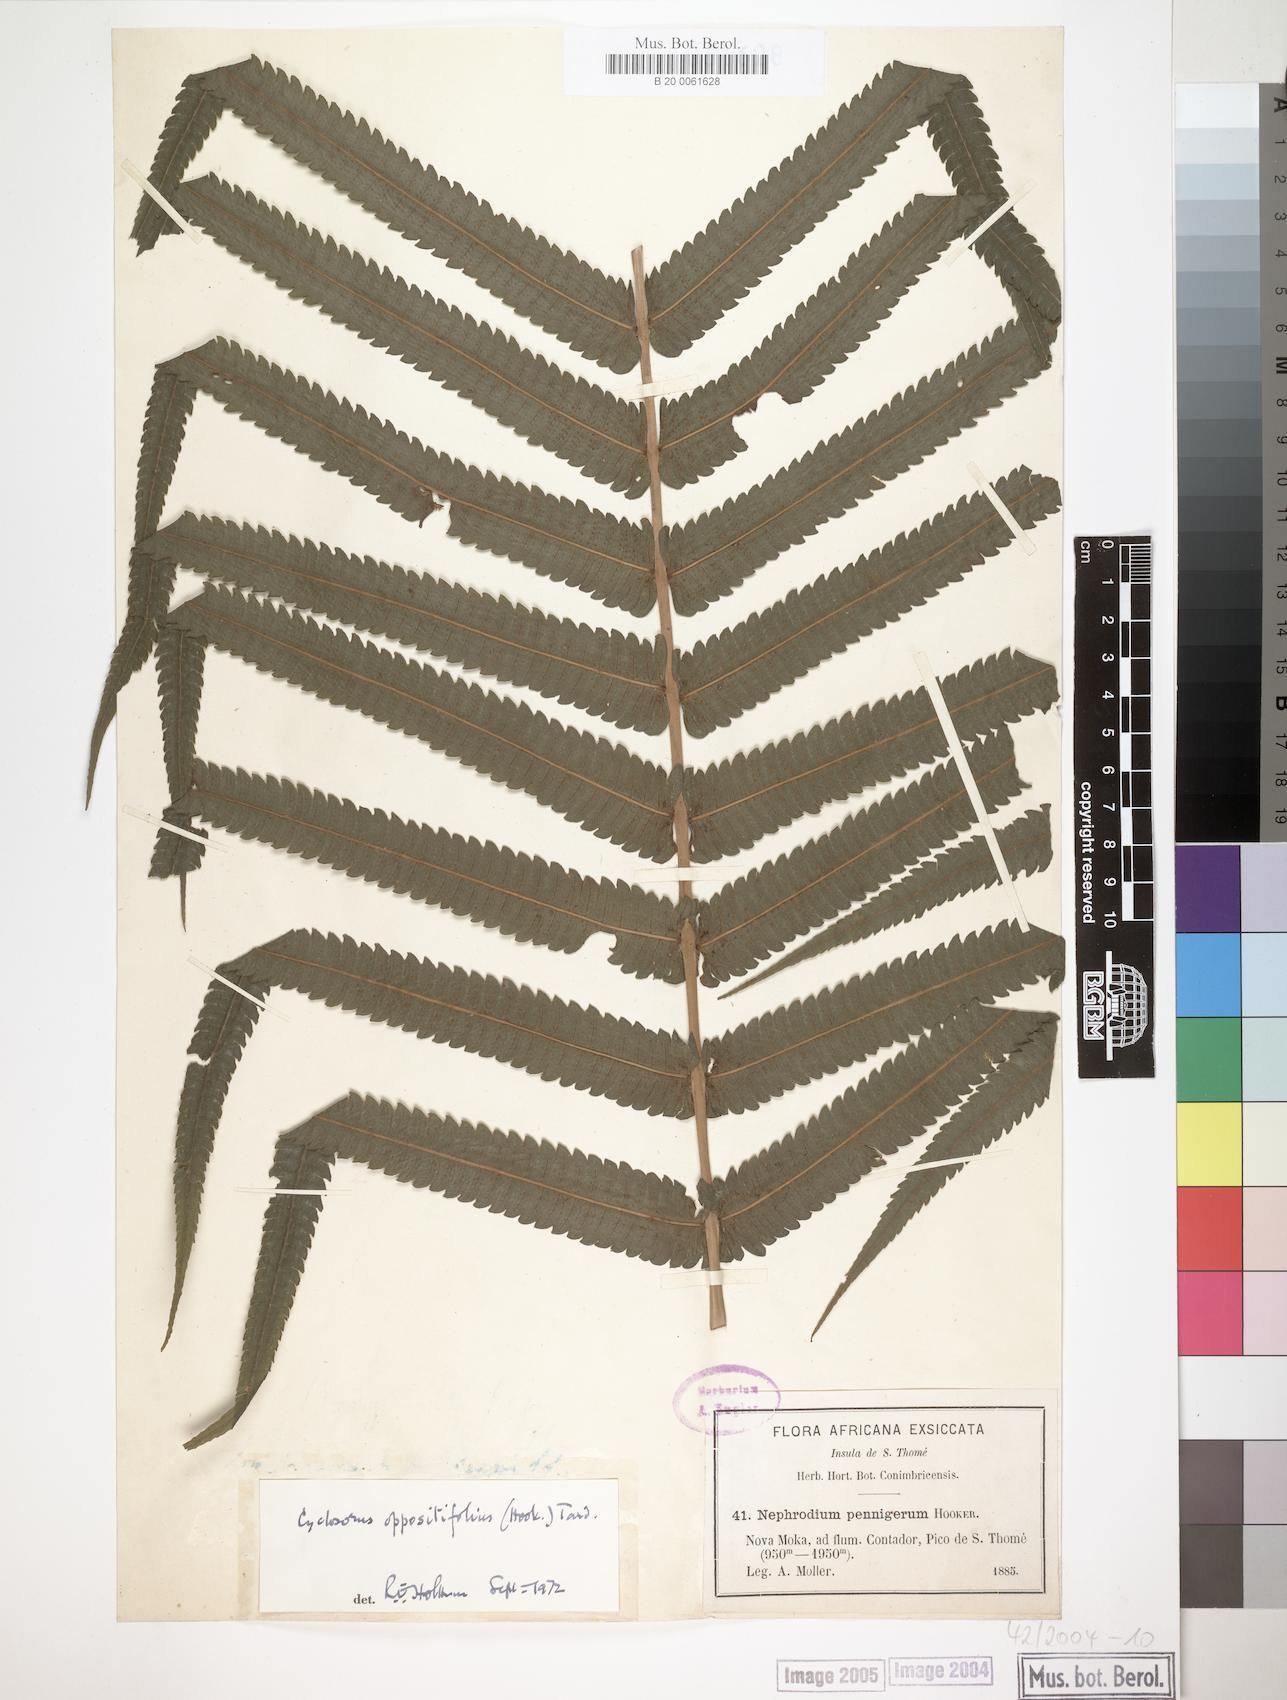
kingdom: Plantae
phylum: Tracheophyta
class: Polypodiopsida
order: Polypodiales
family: Thelypteridaceae
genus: Menisorus
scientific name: Menisorus oppositifolius
